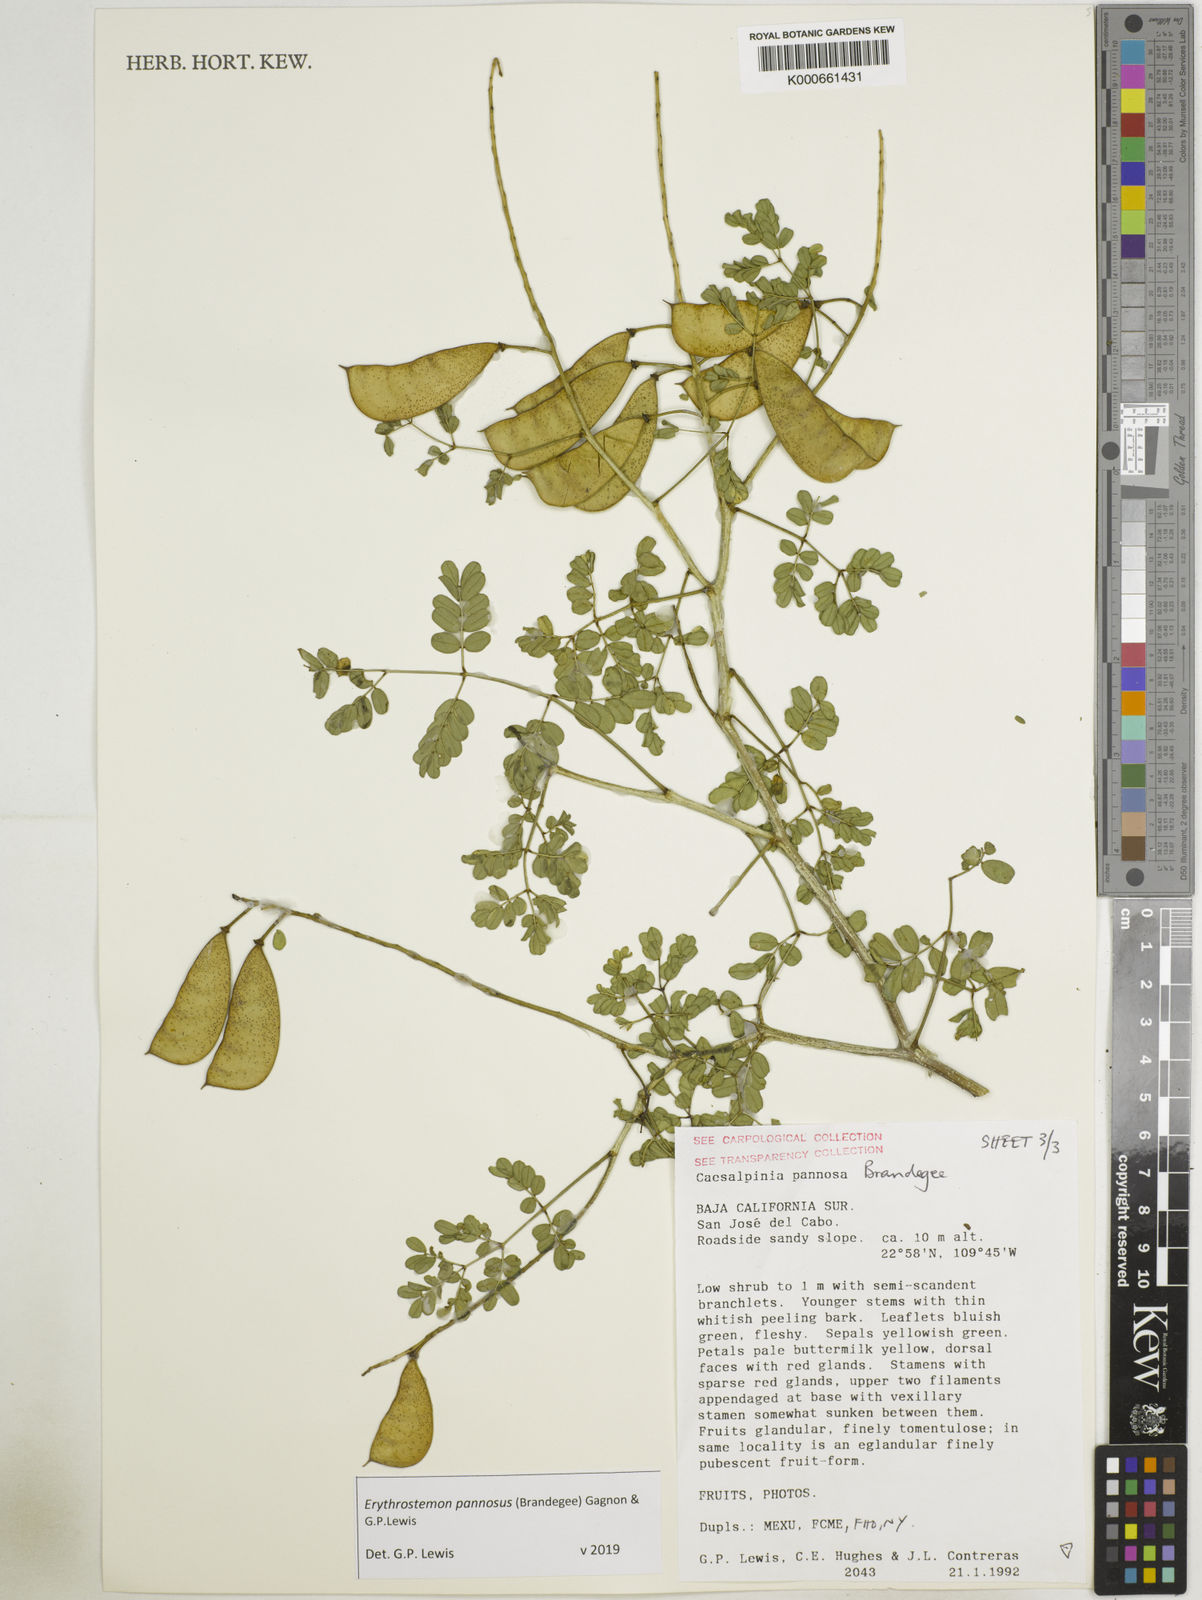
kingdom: Plantae
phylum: Tracheophyta
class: Magnoliopsida
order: Fabales
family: Fabaceae
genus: Erythrostemon
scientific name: Erythrostemon pannosus
